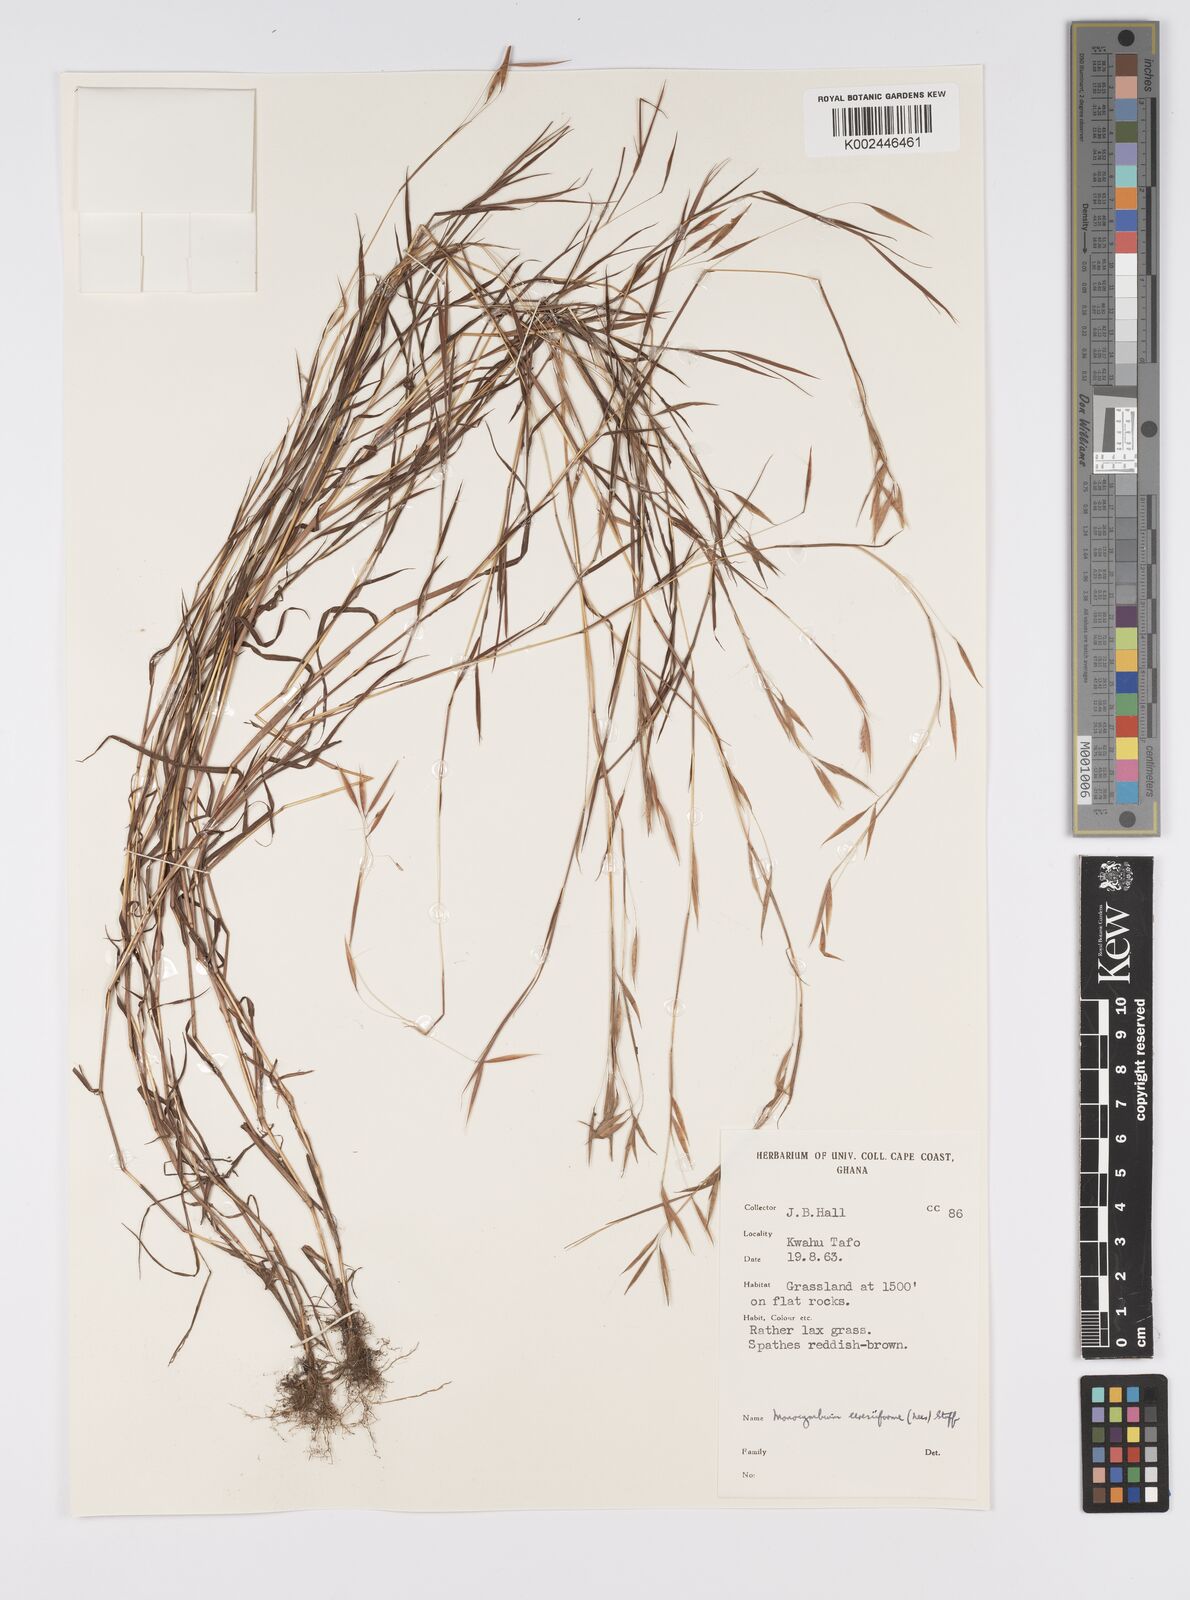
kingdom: Plantae
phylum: Tracheophyta
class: Liliopsida
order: Poales
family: Poaceae
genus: Monocymbium
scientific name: Monocymbium ceresiiforme
